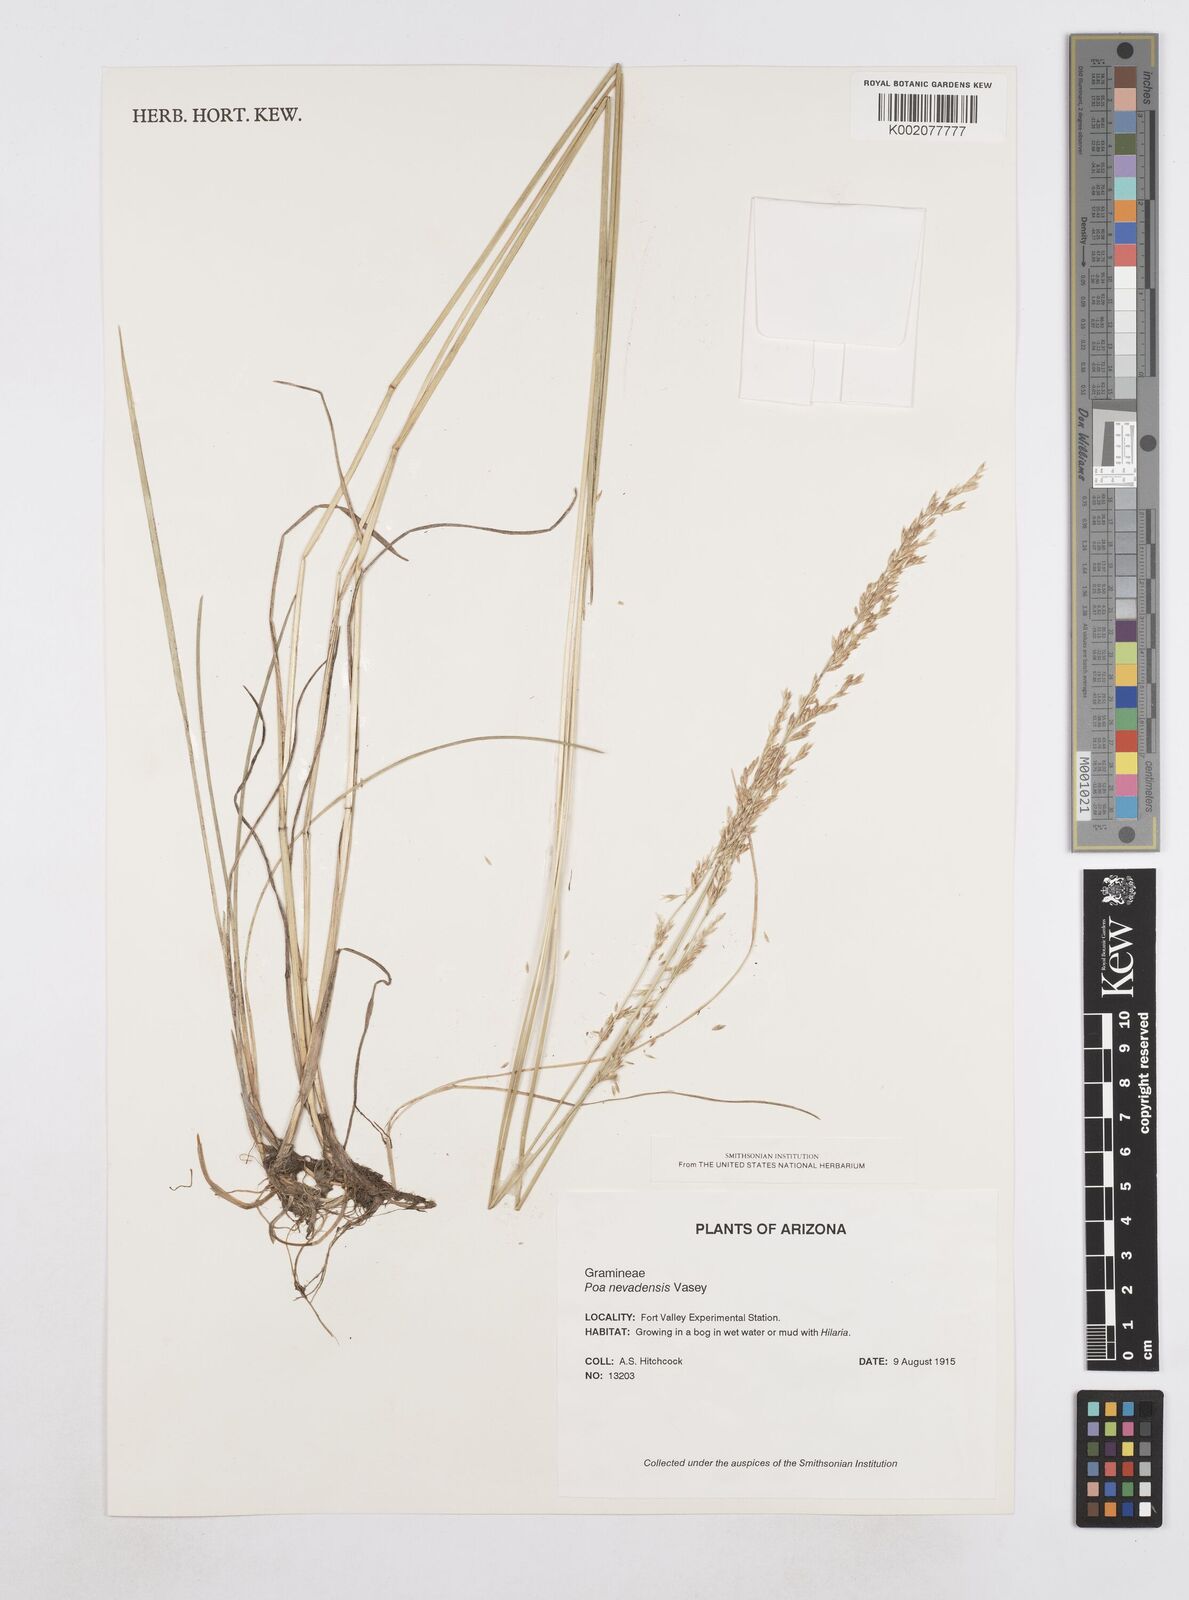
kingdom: Plantae
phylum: Tracheophyta
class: Liliopsida
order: Poales
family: Poaceae
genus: Poa
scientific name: Poa secunda
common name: Sandberg bluegrass
